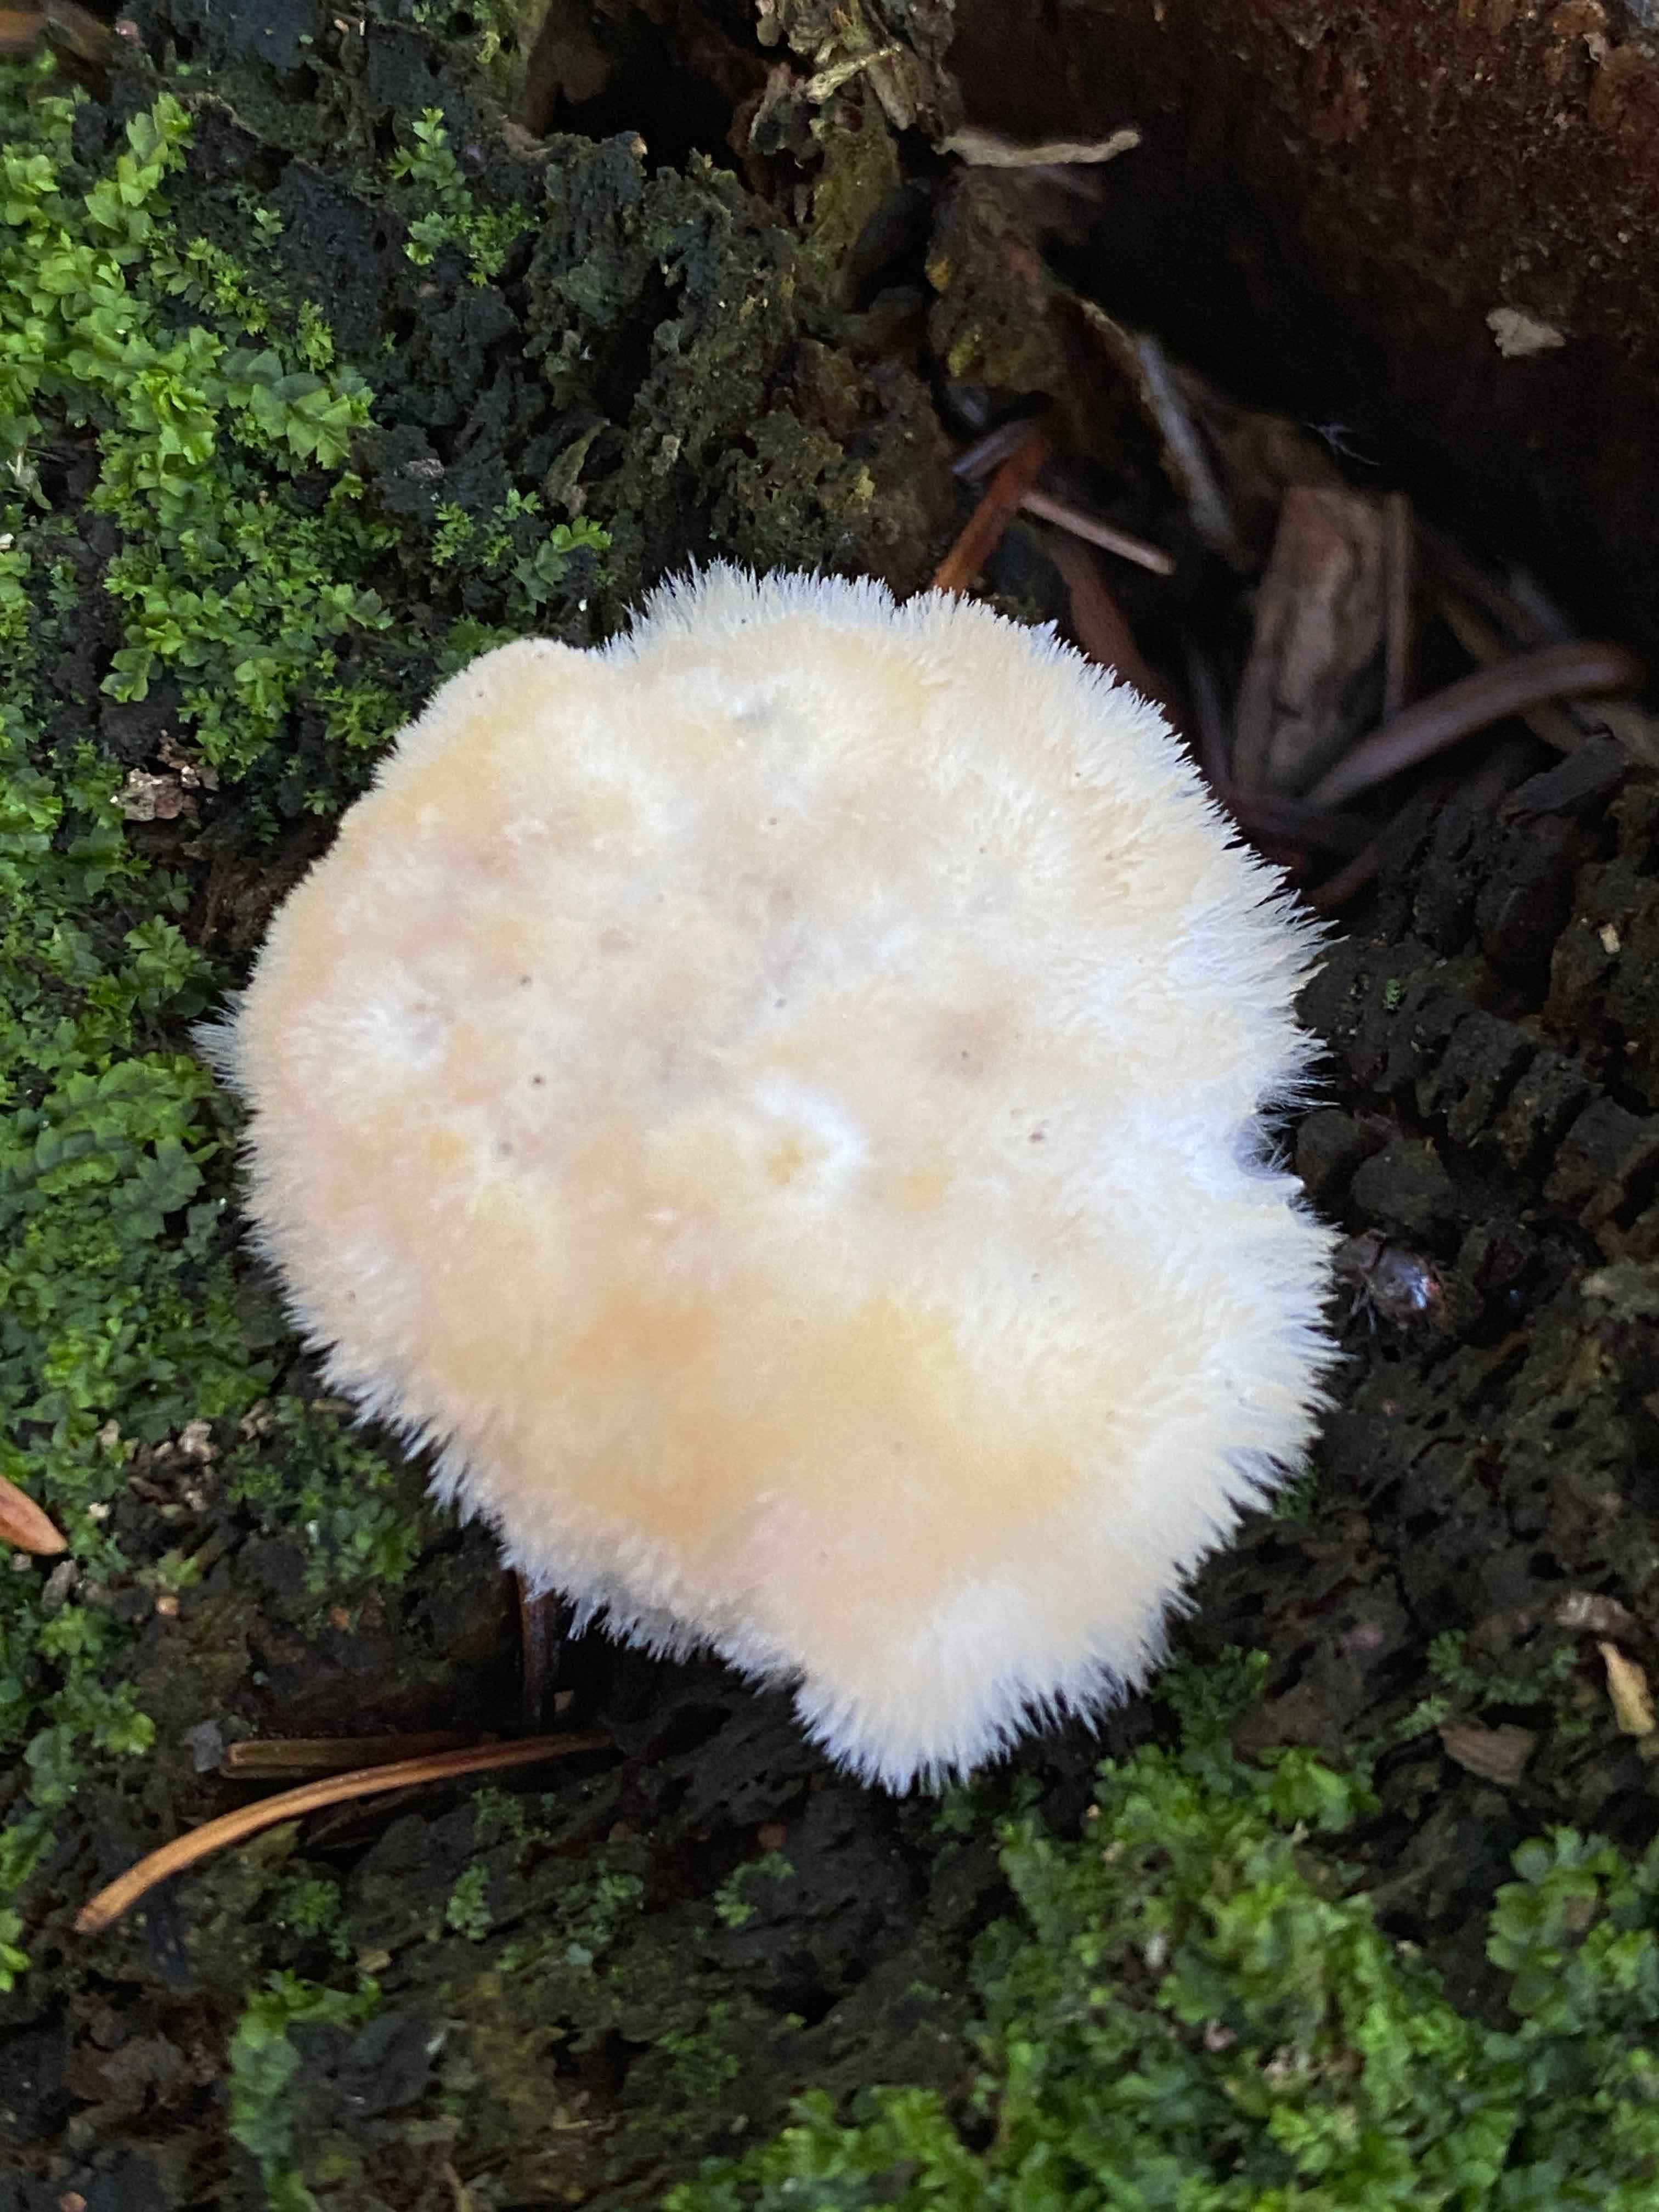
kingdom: Fungi
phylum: Basidiomycota
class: Agaricomycetes
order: Polyporales
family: Dacryobolaceae
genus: Postia
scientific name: Postia ptychogaster
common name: støvende kødporesvamp
